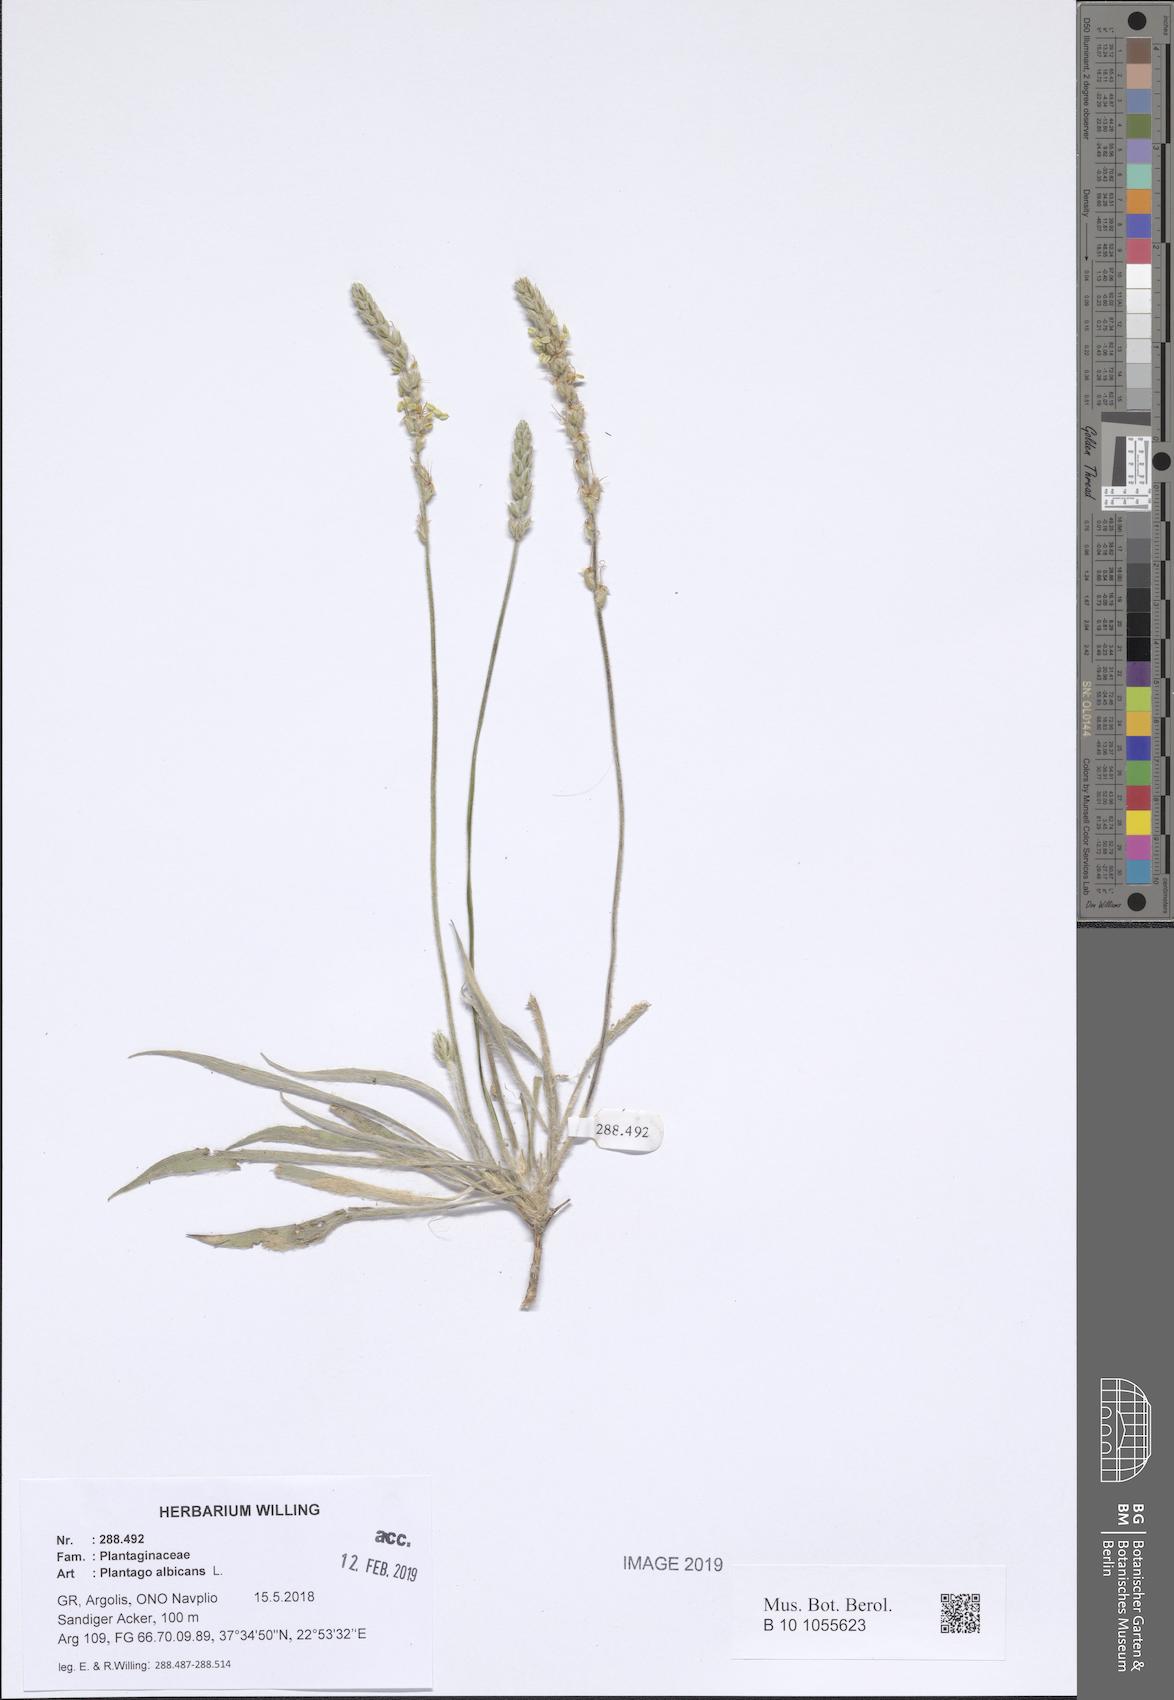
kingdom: Plantae
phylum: Tracheophyta
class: Magnoliopsida
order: Lamiales
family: Plantaginaceae
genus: Plantago
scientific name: Plantago albicans
